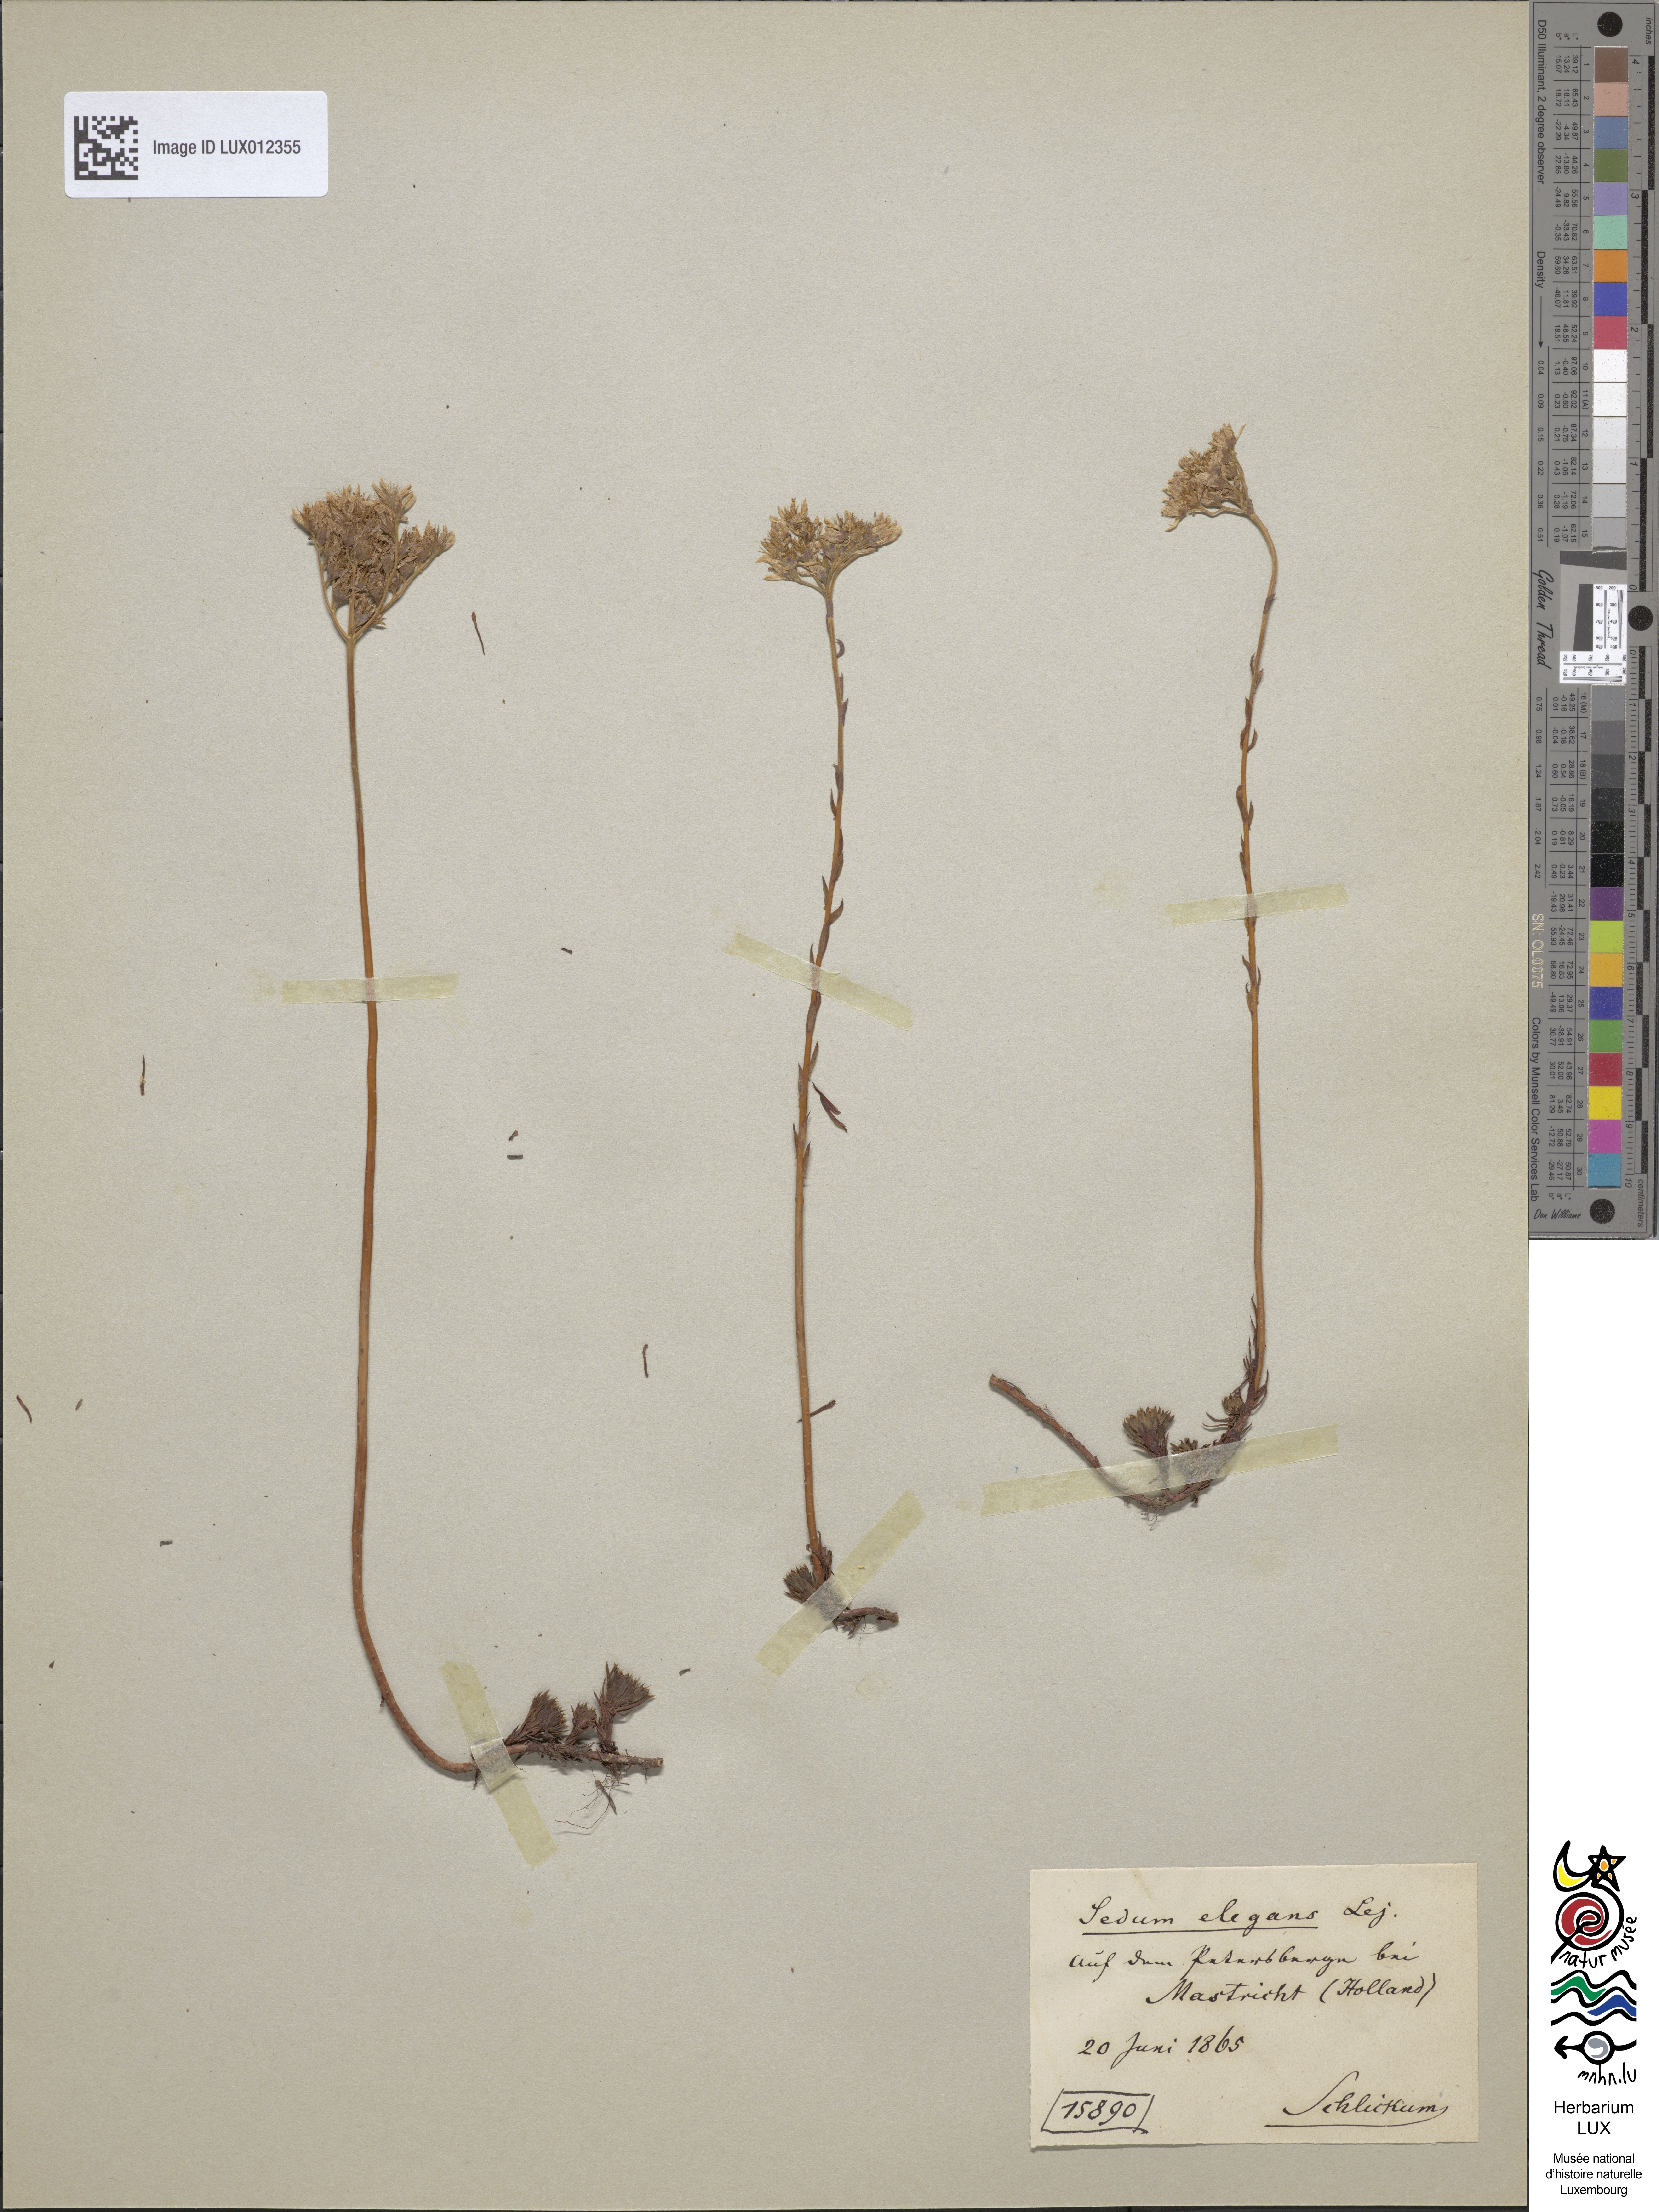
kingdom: Plantae
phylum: Tracheophyta
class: Magnoliopsida
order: Saxifragales
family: Crassulaceae
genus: Petrosedum
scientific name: Petrosedum forsterianum
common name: Forster's stonecrop
